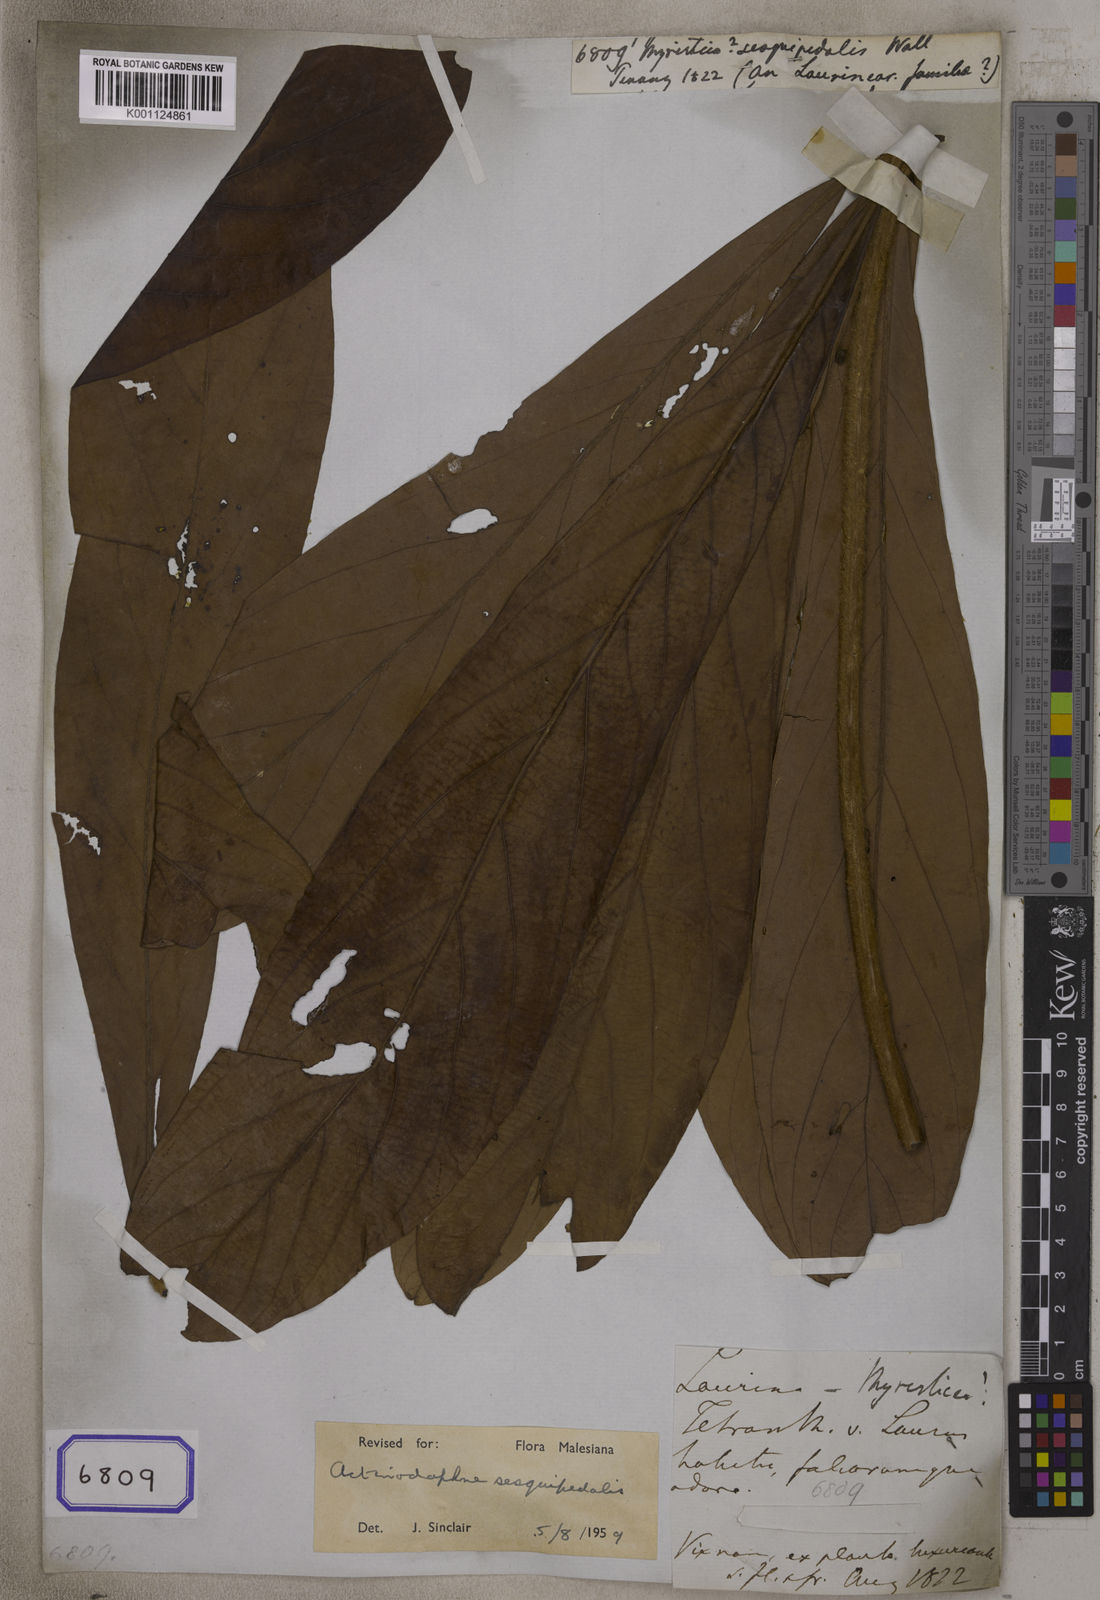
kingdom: Plantae
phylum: Tracheophyta
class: Magnoliopsida
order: Laurales
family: Lauraceae
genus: Actinodaphne
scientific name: Actinodaphne sesquipedalis
